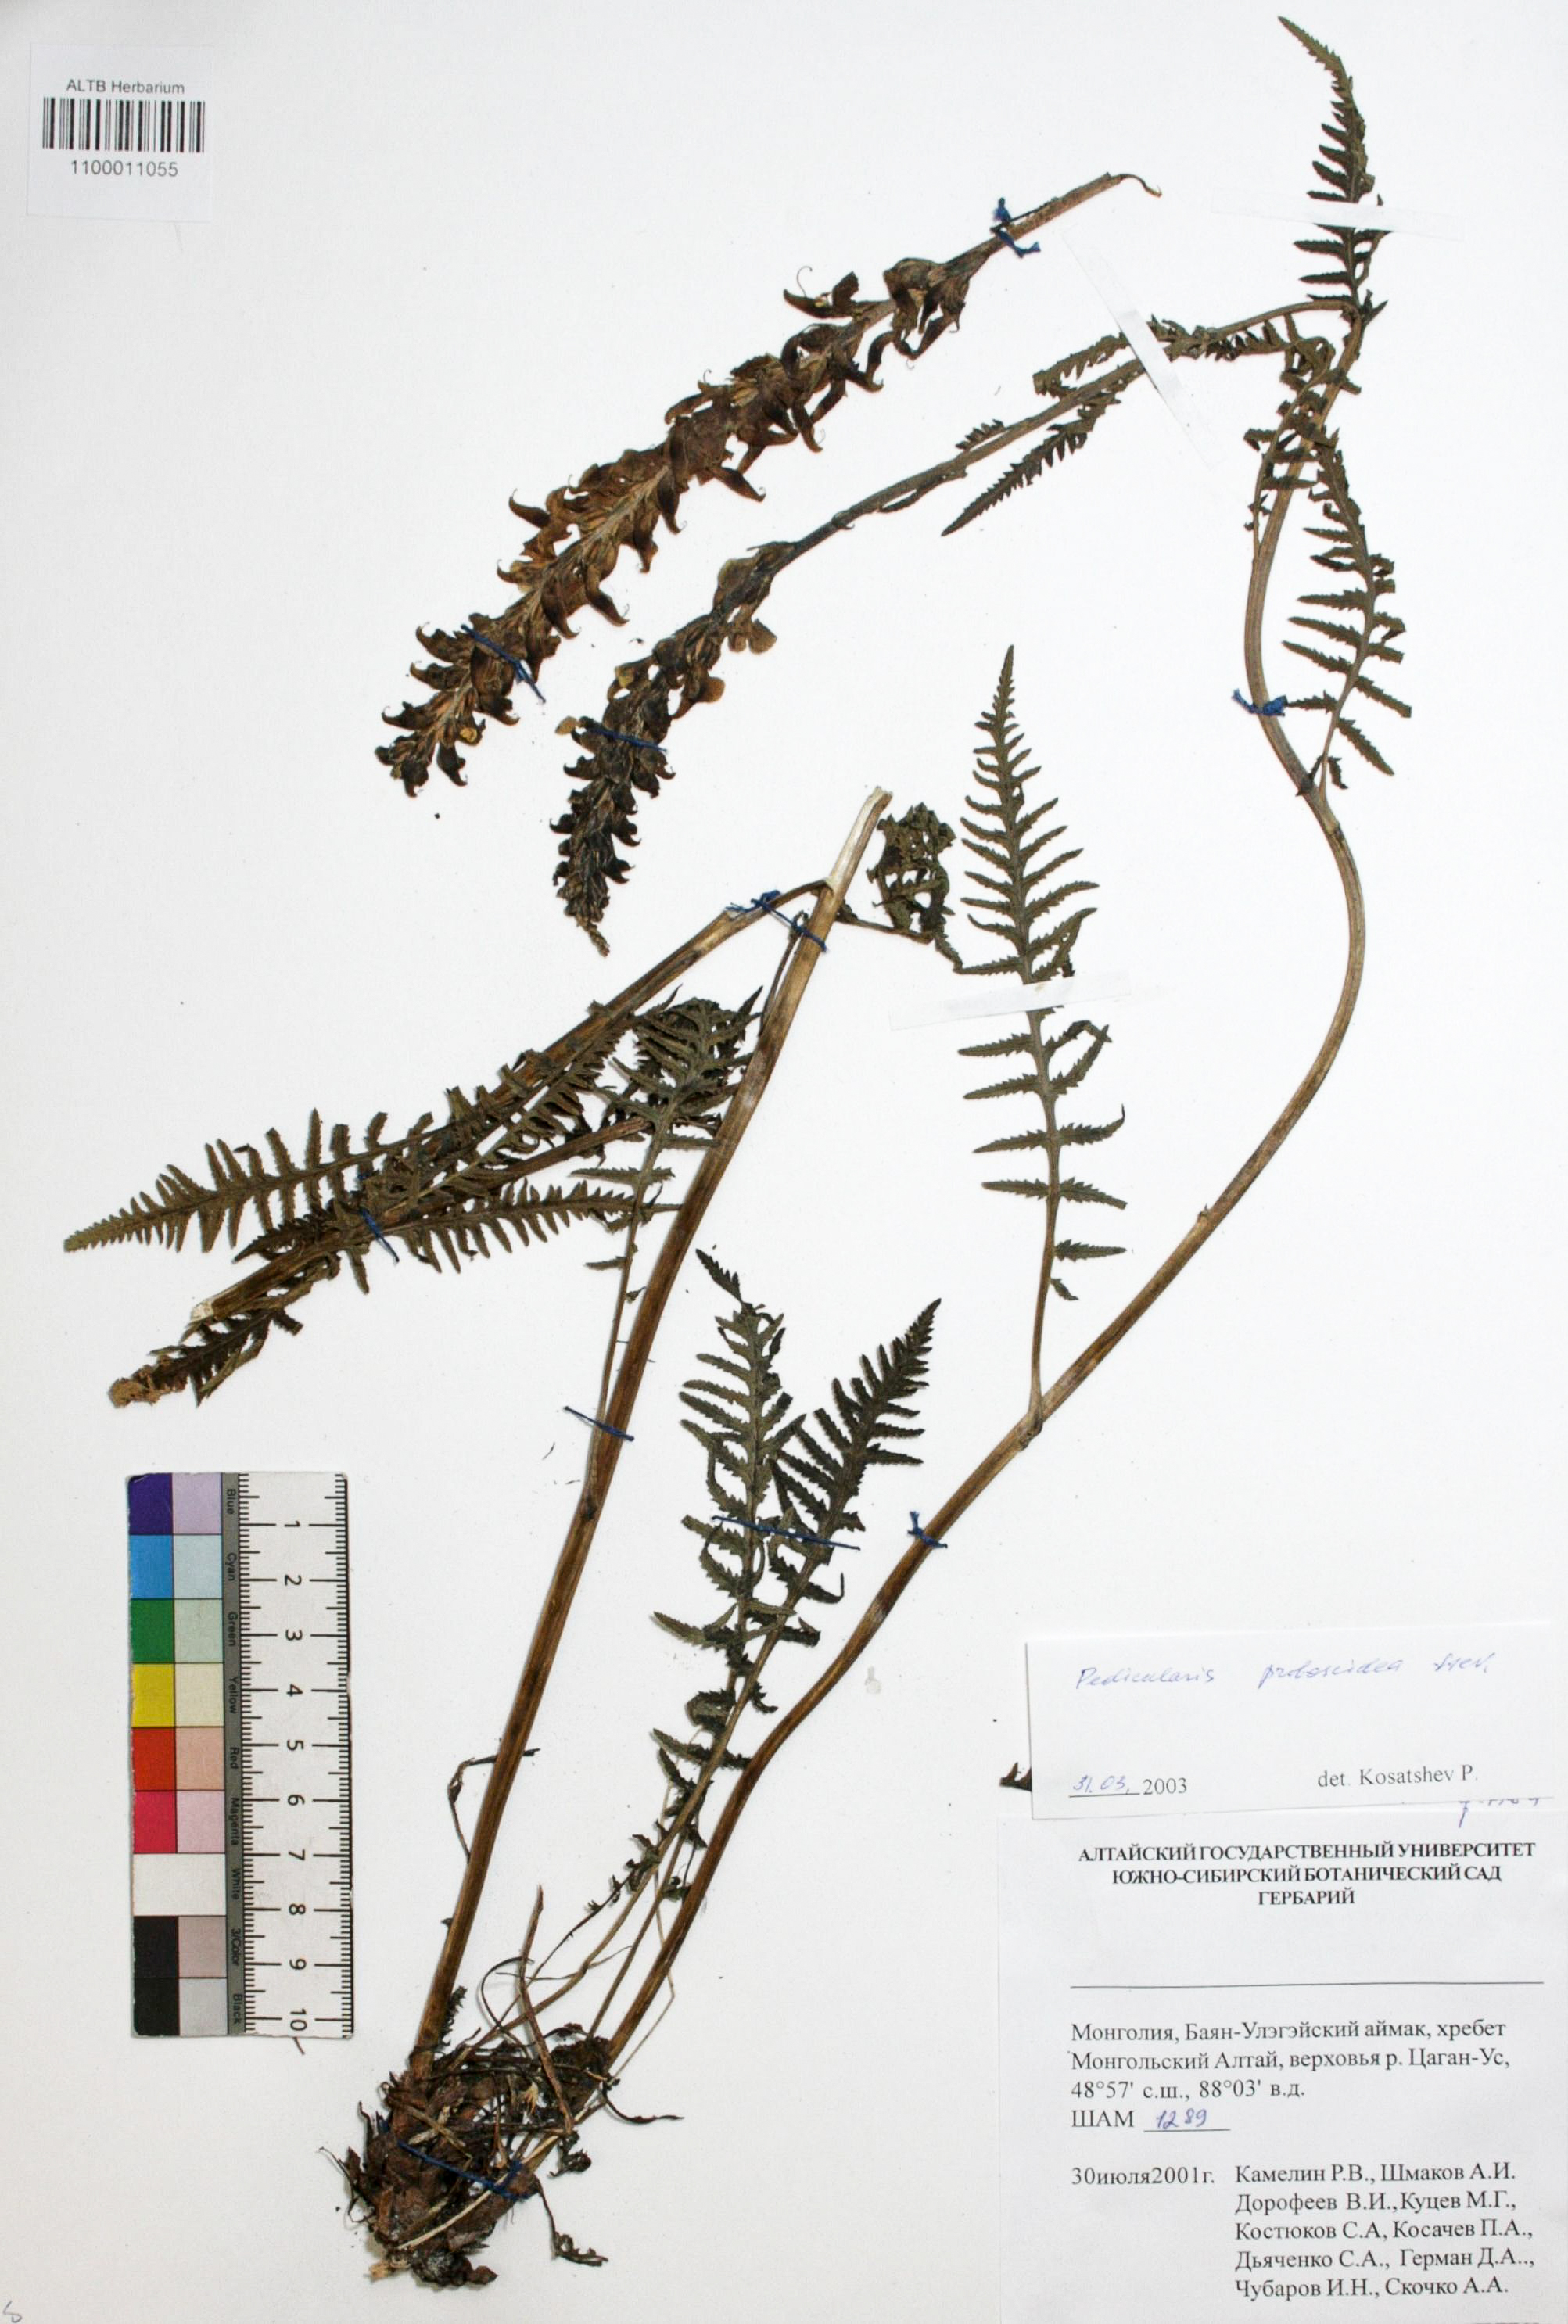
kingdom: Plantae
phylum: Tracheophyta
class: Magnoliopsida
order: Lamiales
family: Orobanchaceae
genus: Pedicularis
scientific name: Pedicularis proboscidea
